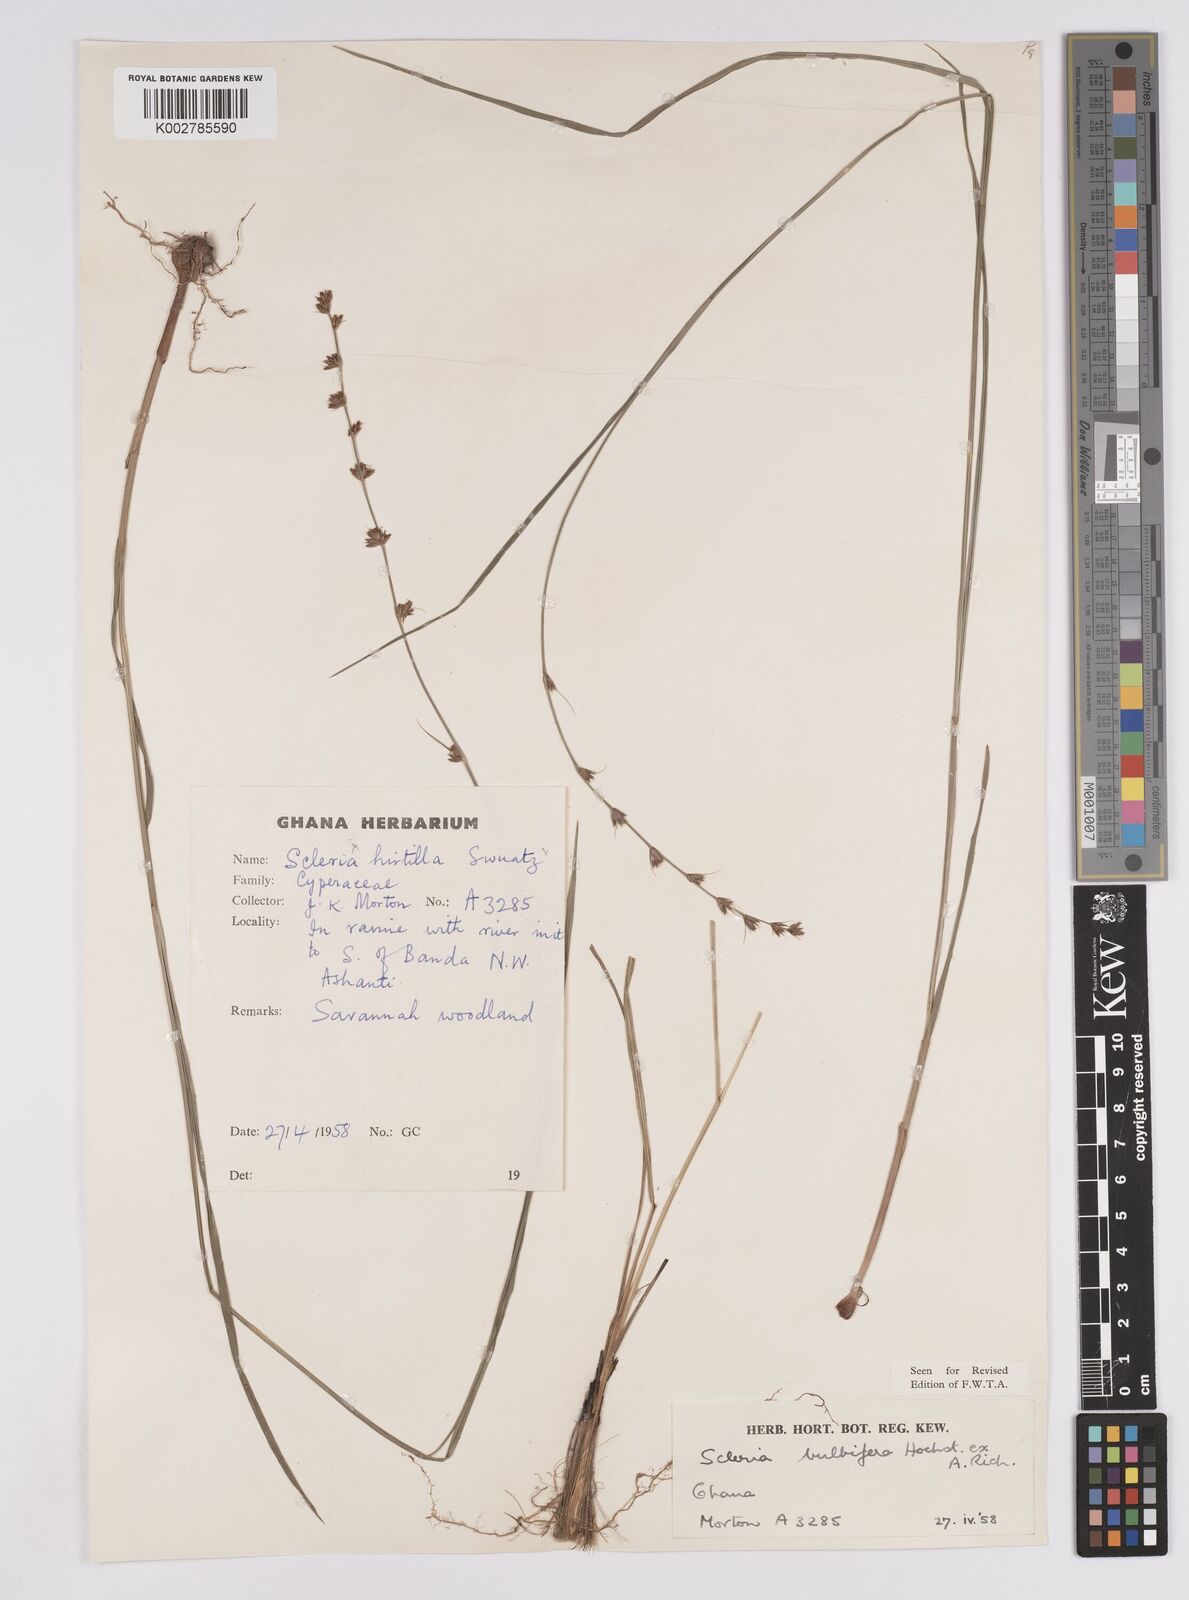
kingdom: Plantae
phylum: Tracheophyta
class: Liliopsida
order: Poales
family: Cyperaceae
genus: Scleria
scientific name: Scleria bulbifera
